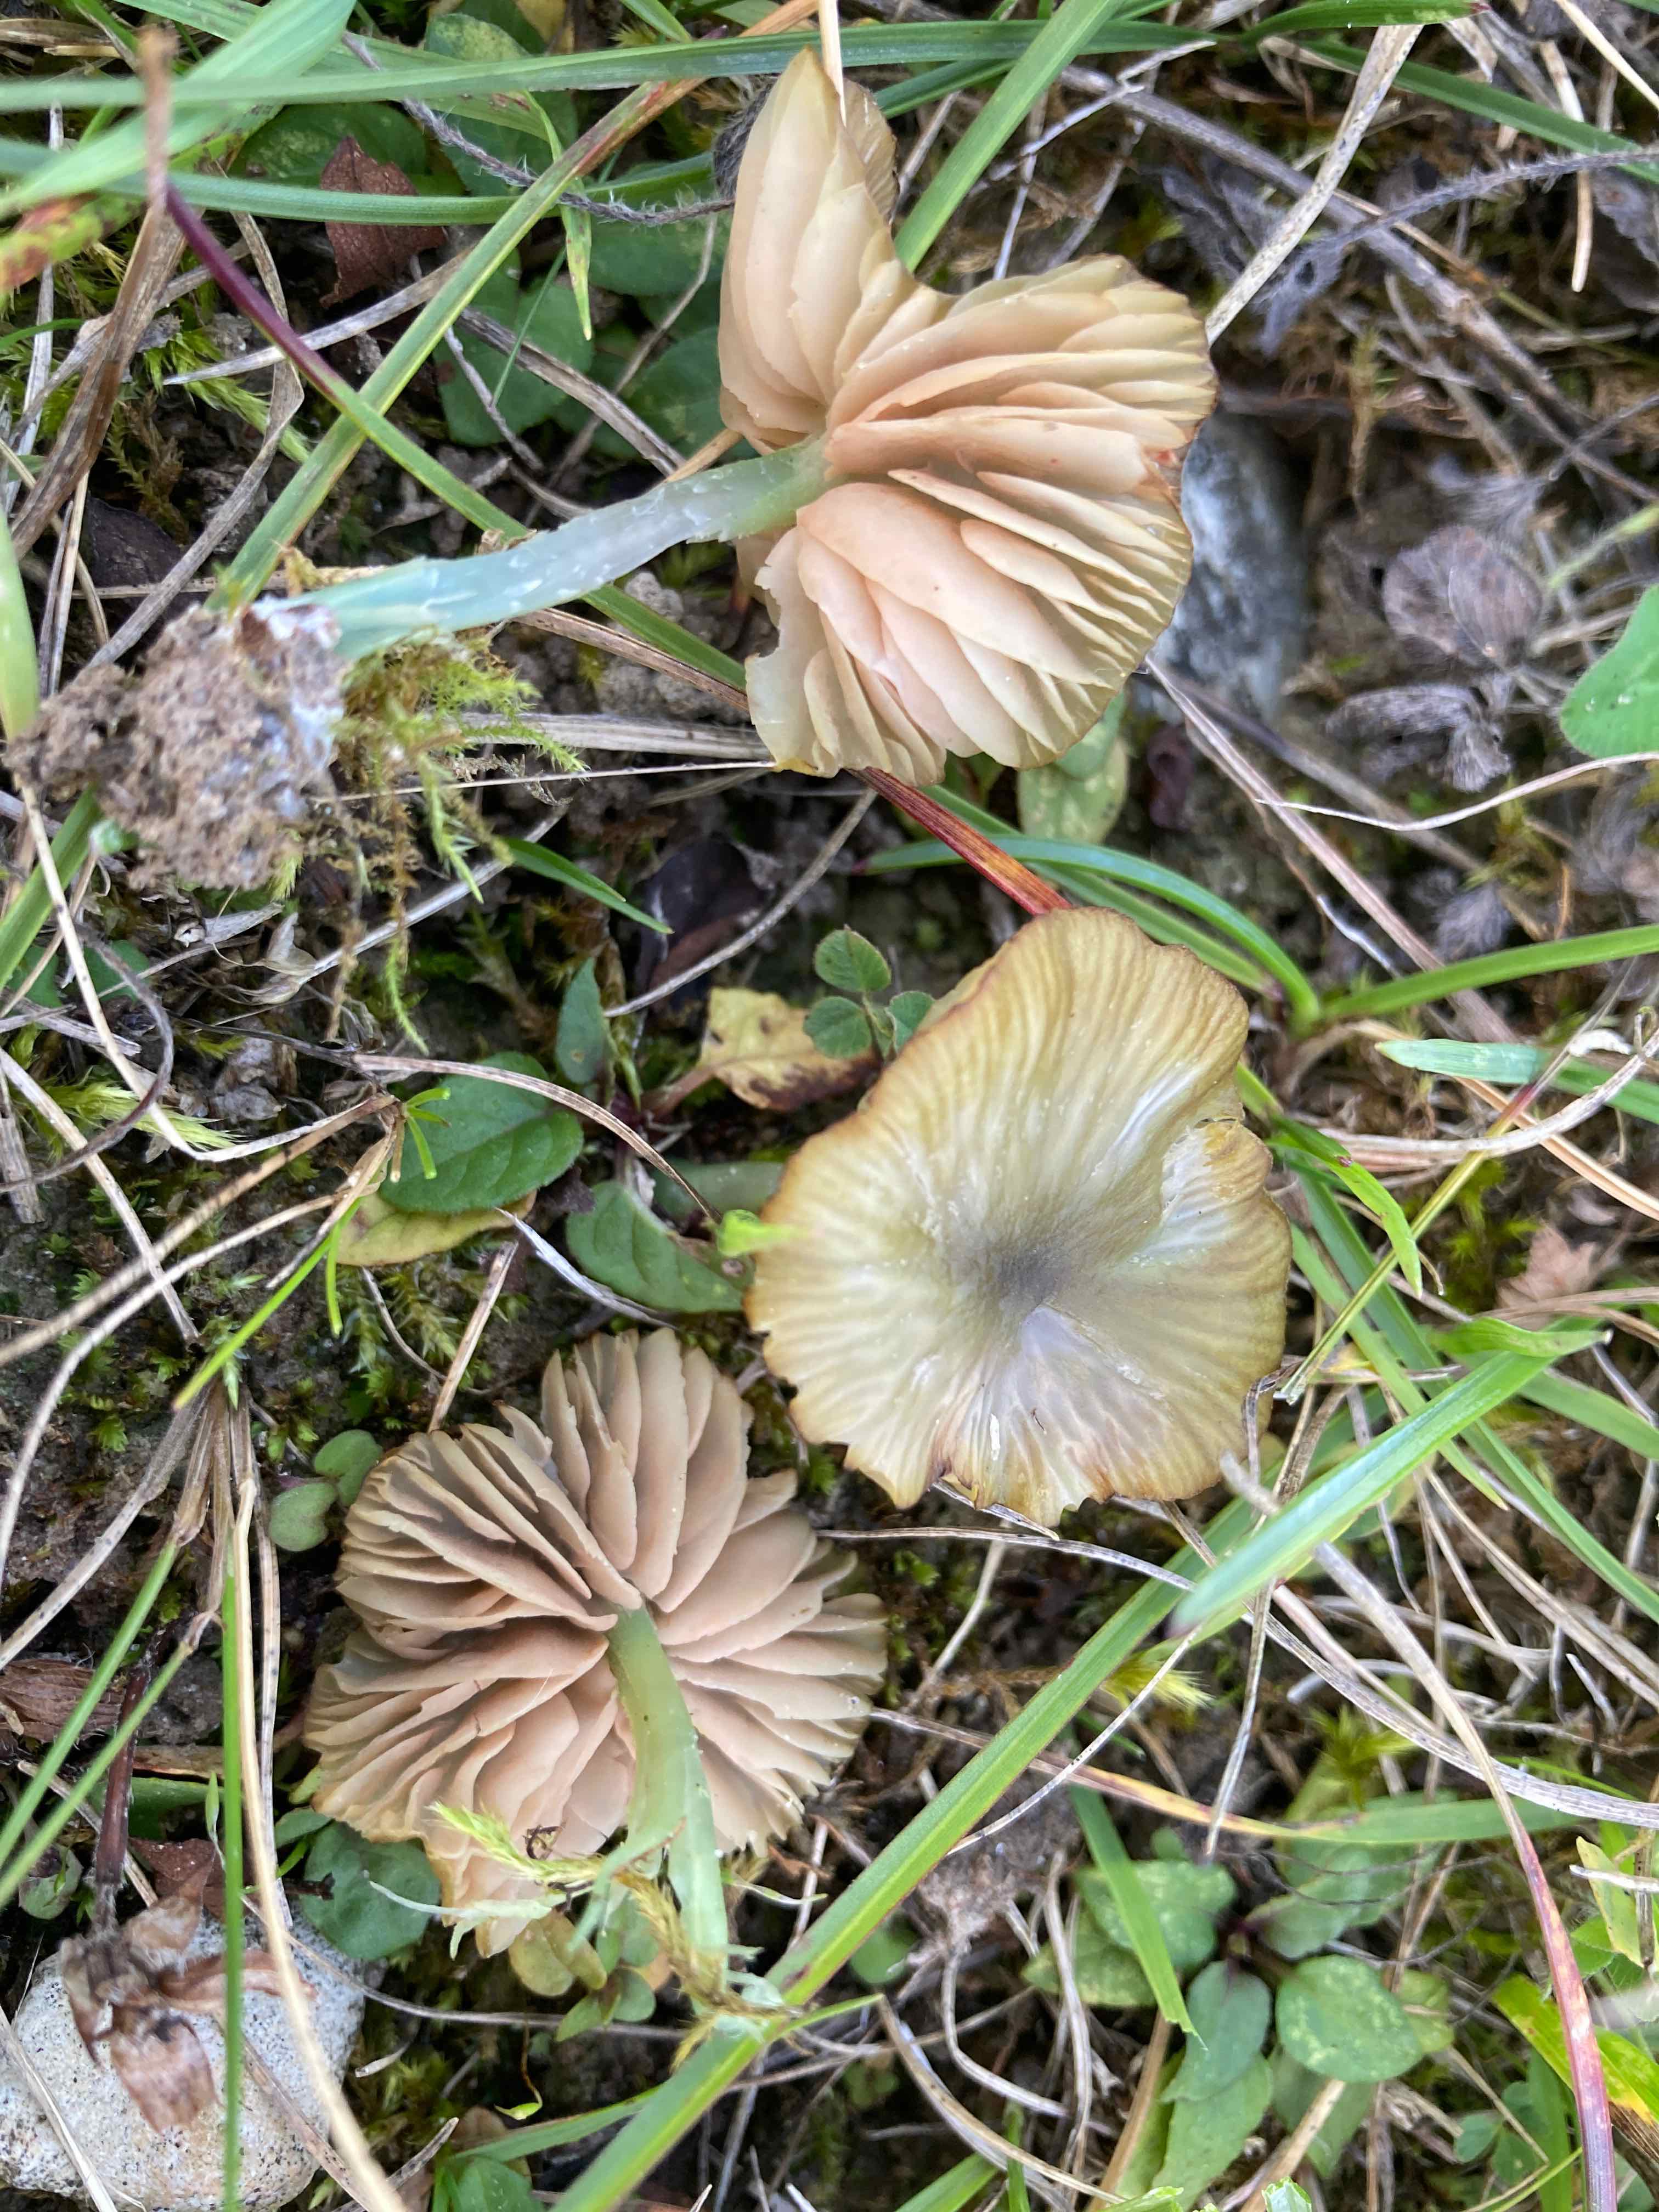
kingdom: Fungi
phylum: Basidiomycota
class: Agaricomycetes
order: Agaricales
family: Entolomataceae
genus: Entoloma
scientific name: Entoloma incanum
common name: grøngul rødblad
